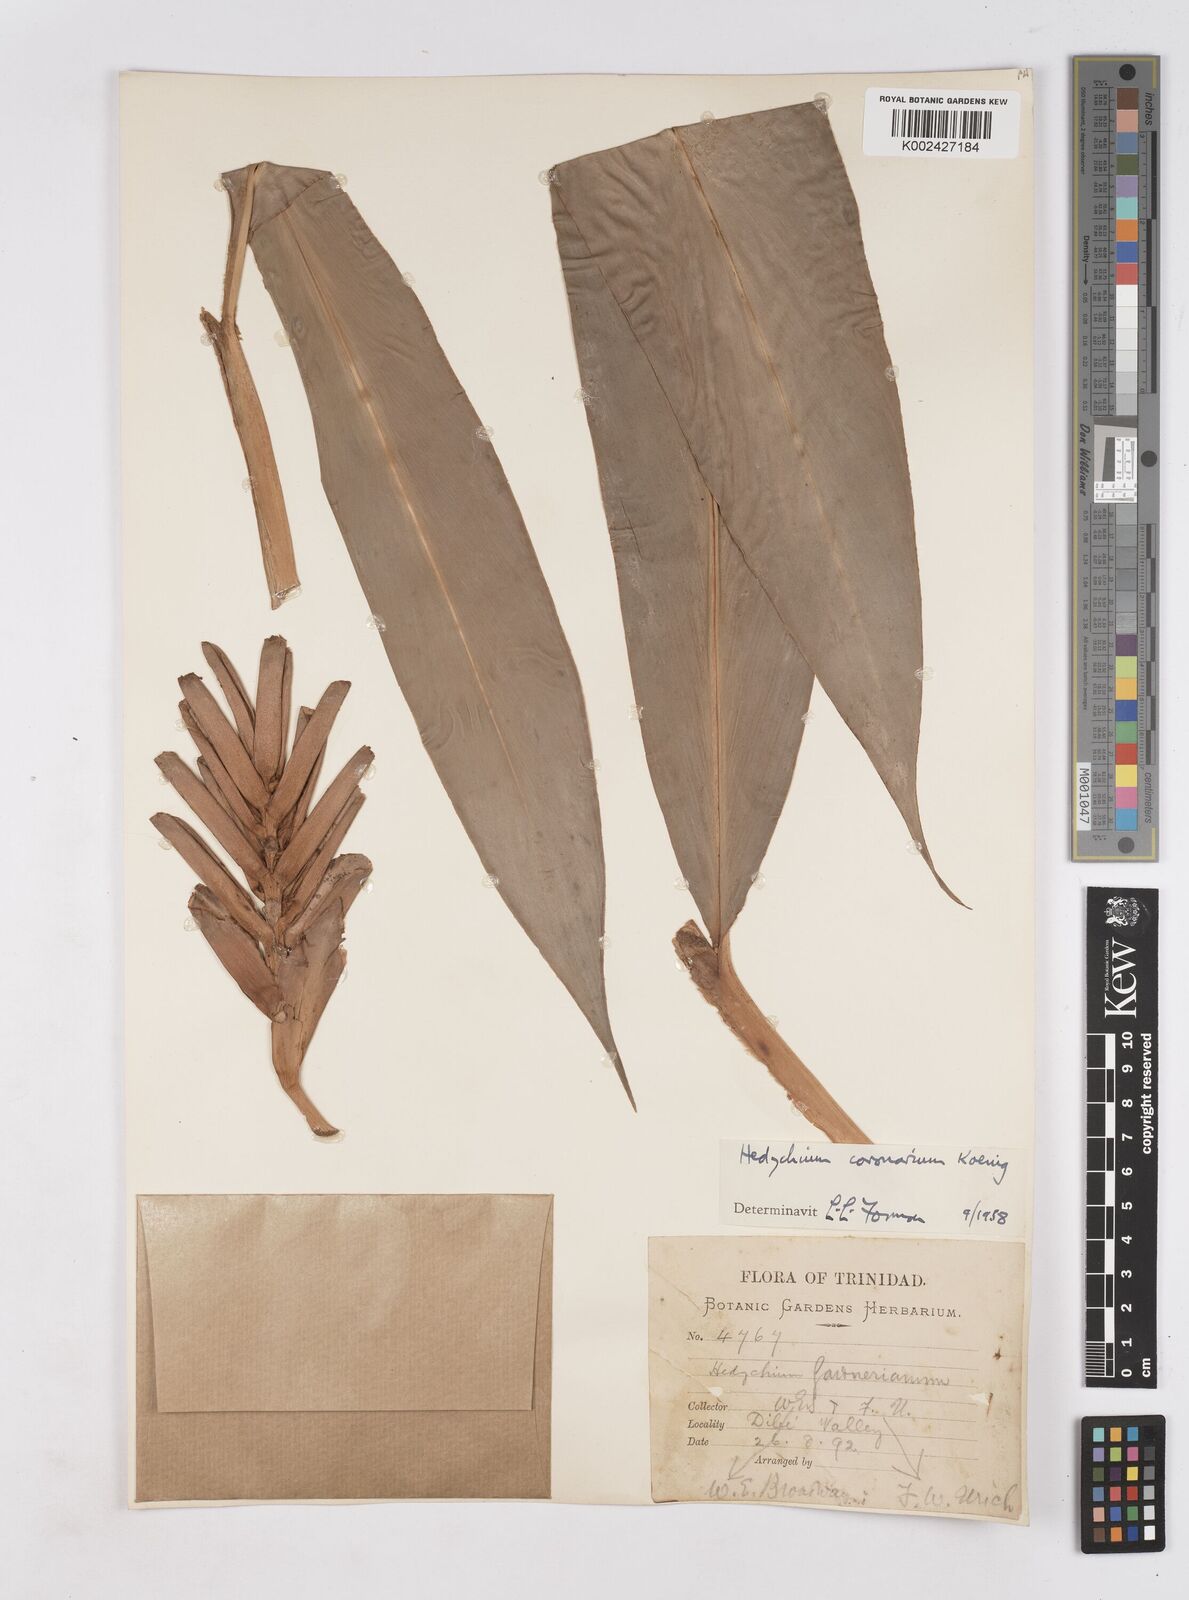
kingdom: Plantae
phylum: Tracheophyta
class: Liliopsida
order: Zingiberales
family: Zingiberaceae
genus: Hedychium
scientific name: Hedychium coronarium
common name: White garland-lily
